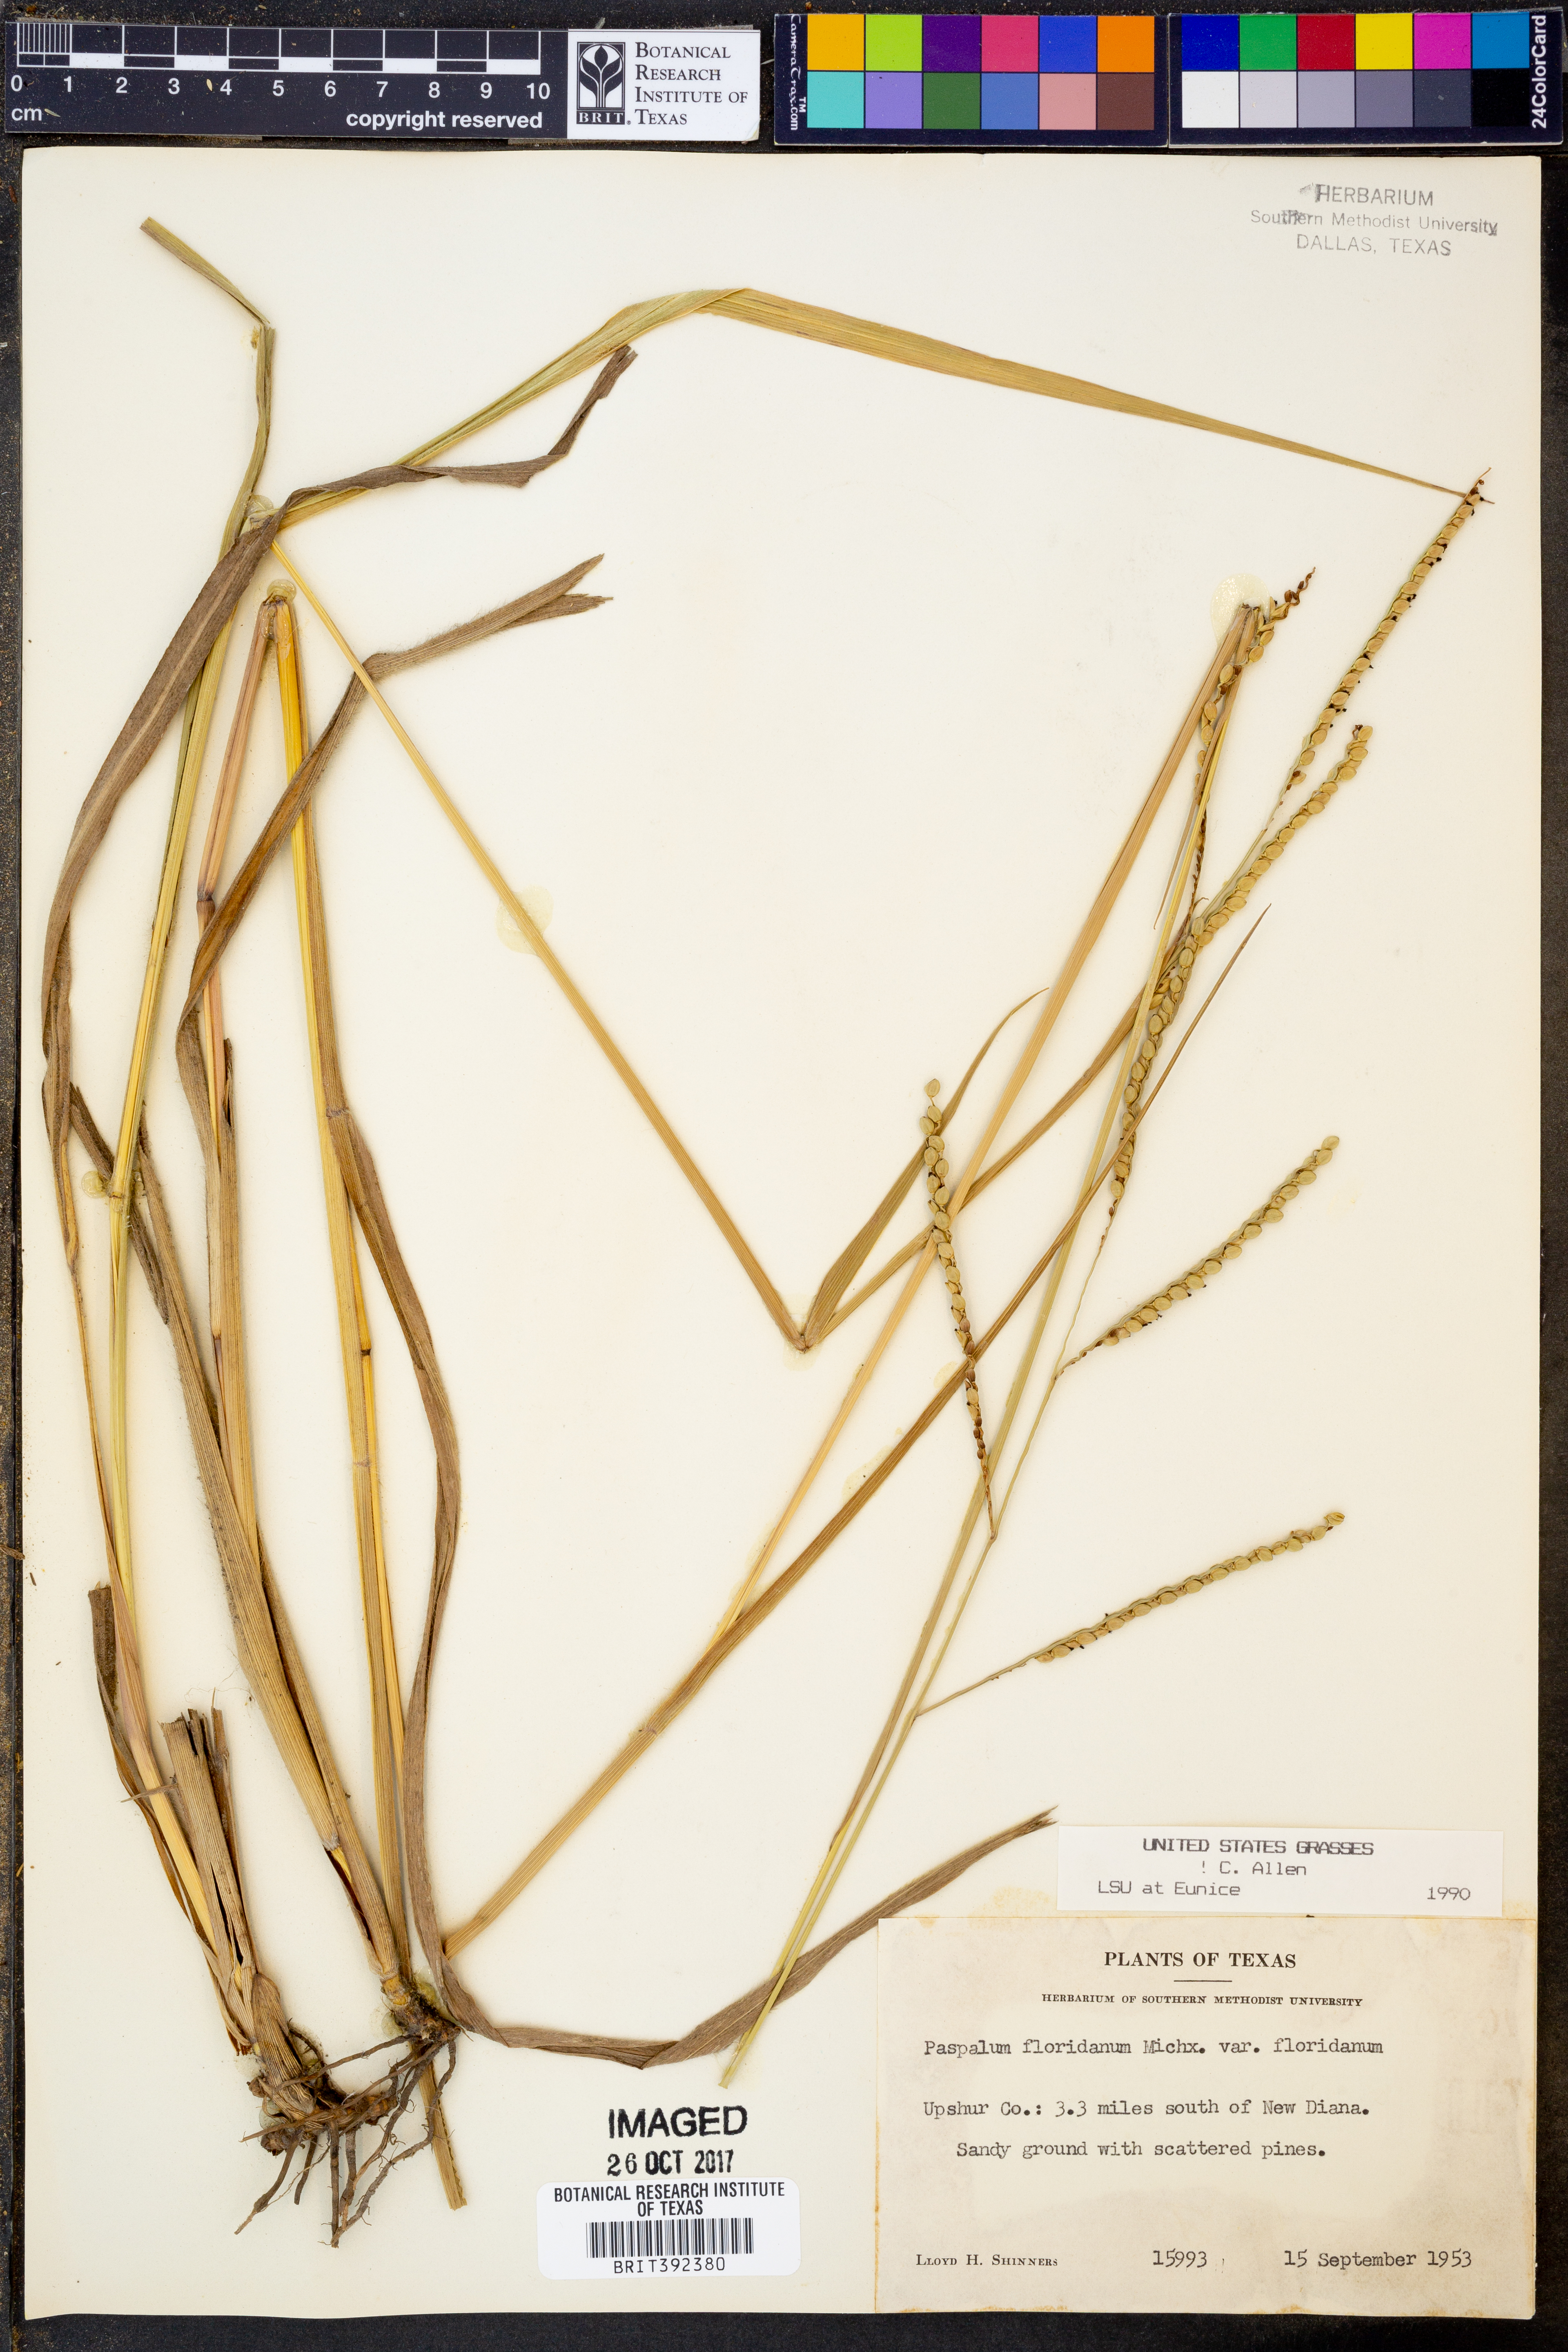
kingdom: Plantae
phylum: Tracheophyta
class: Liliopsida
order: Poales
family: Poaceae
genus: Paspalum
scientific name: Paspalum floridanum
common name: Florida paspalum
